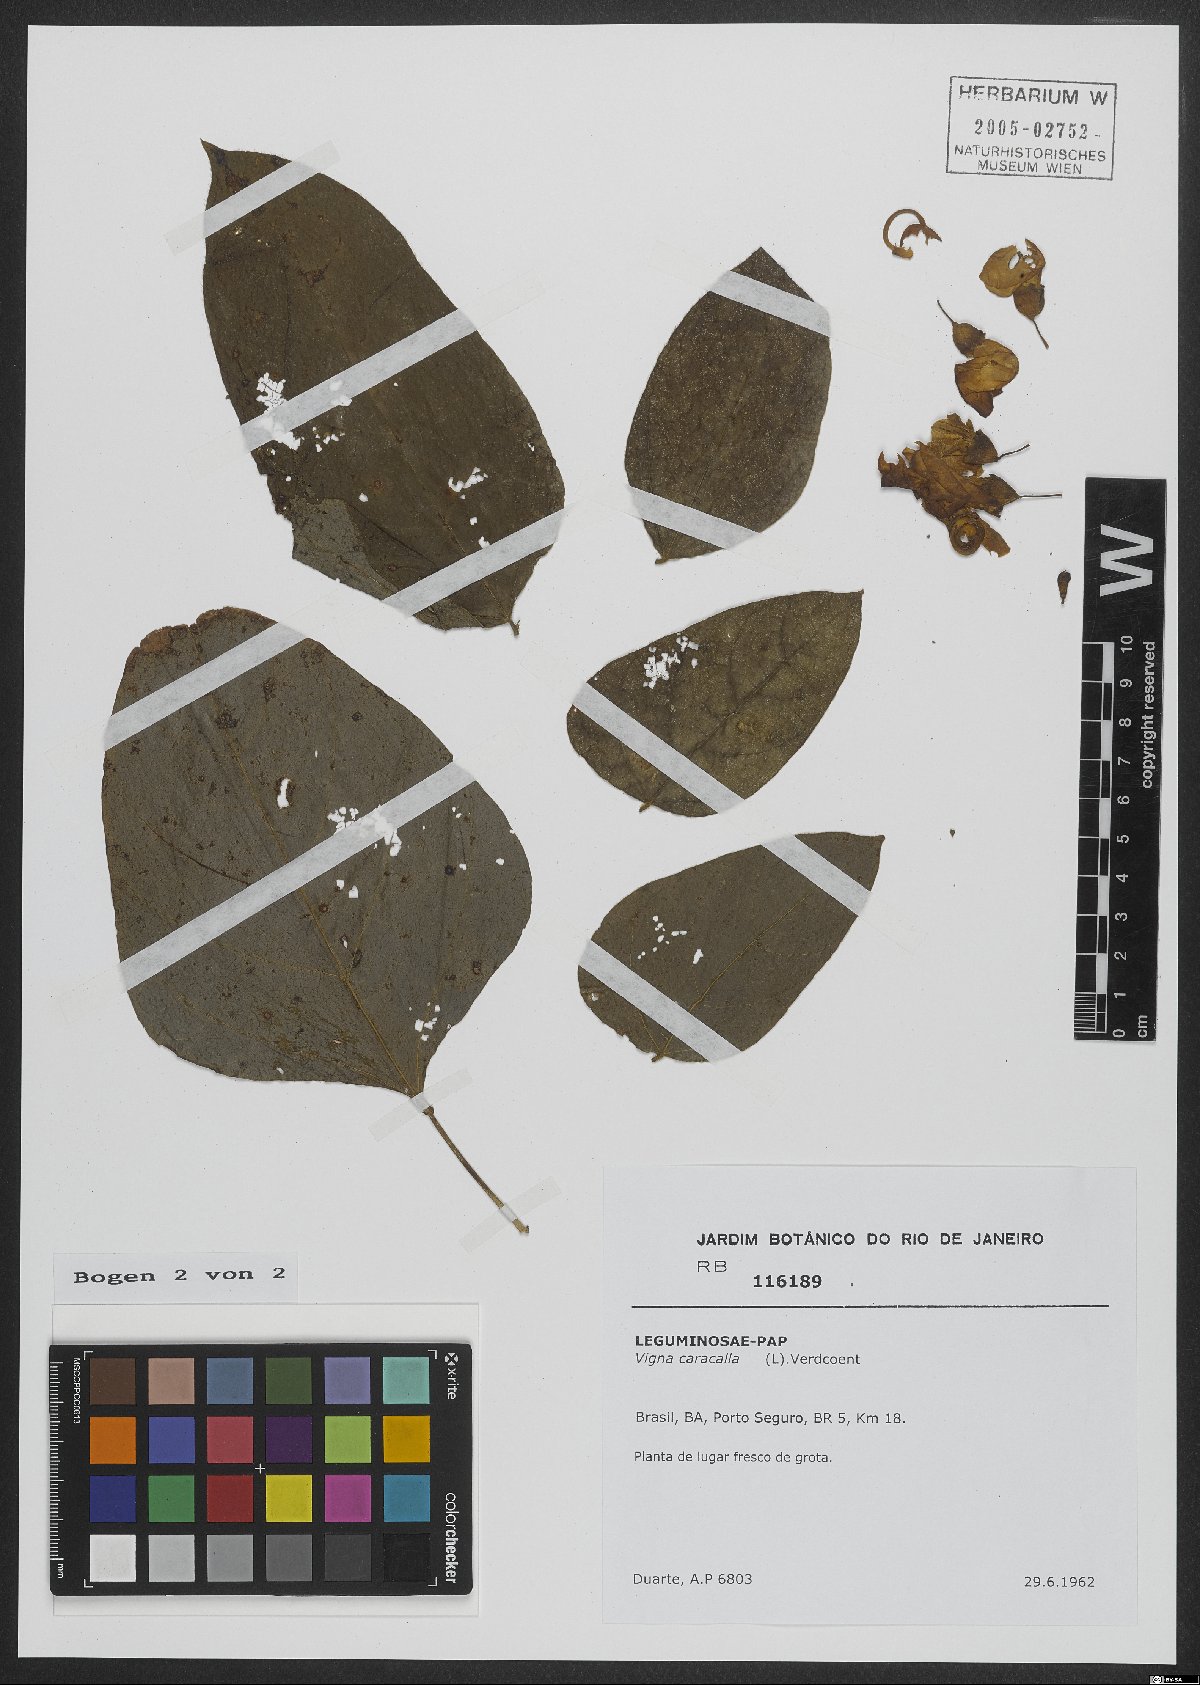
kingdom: Plantae
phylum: Tracheophyta
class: Magnoliopsida
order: Fabales
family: Fabaceae
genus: Cochliasanthus
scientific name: Cochliasanthus caracalla
